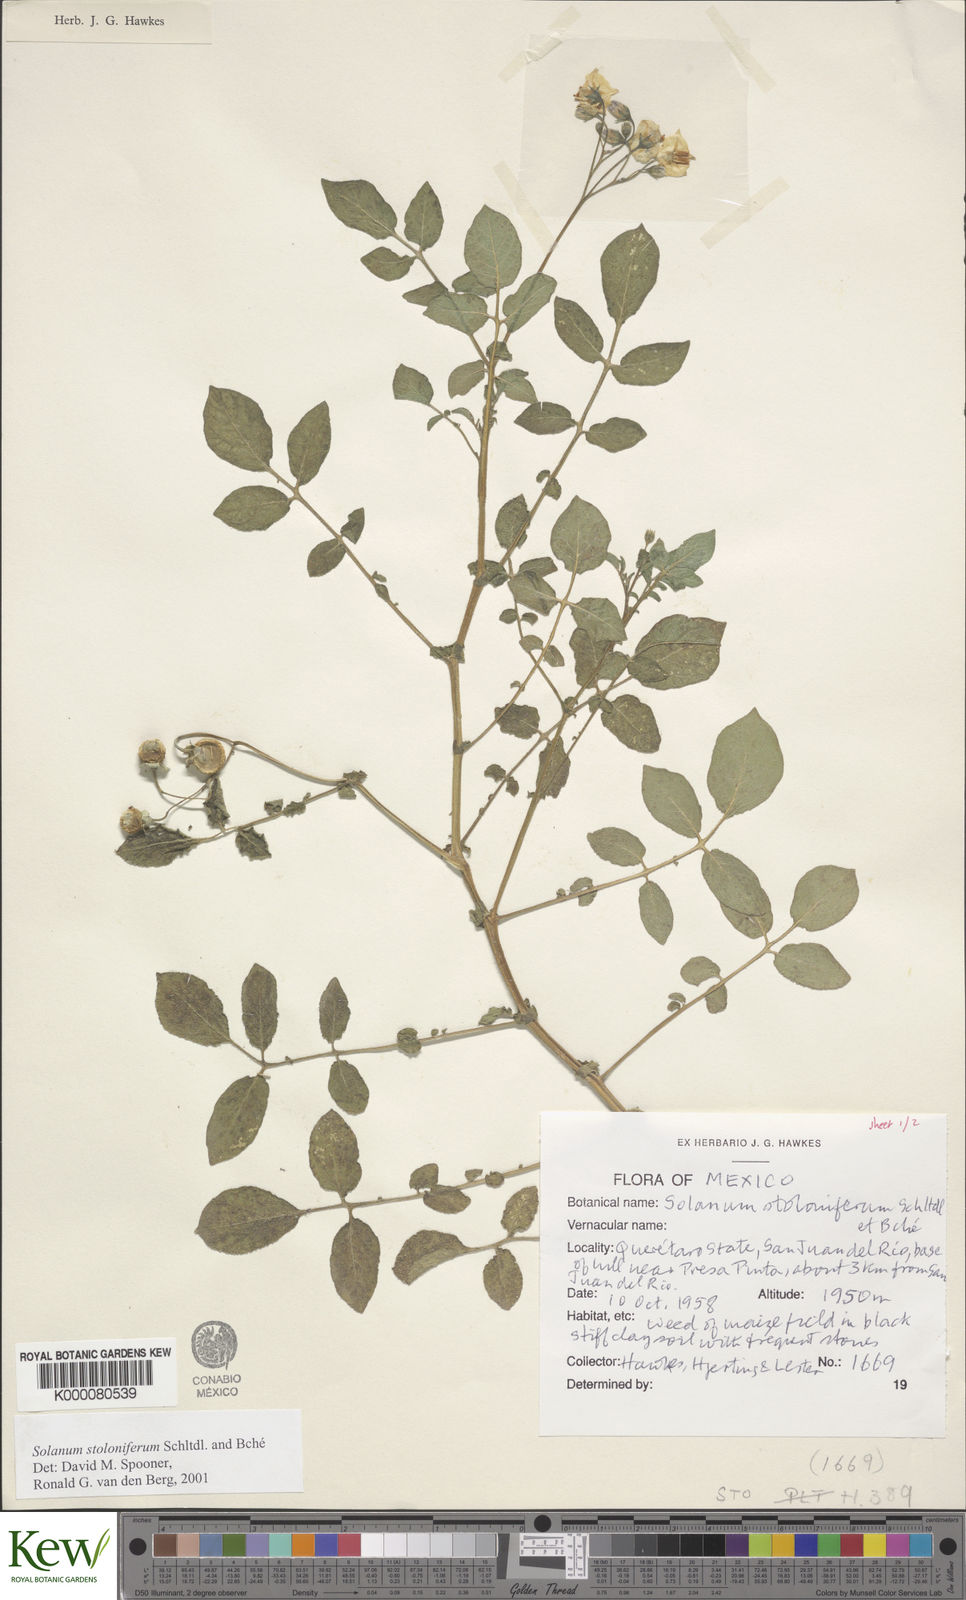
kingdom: Plantae
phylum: Tracheophyta
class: Magnoliopsida
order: Solanales
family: Solanaceae
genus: Solanum
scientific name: Solanum stoloniferum
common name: Fendler's nighshade
